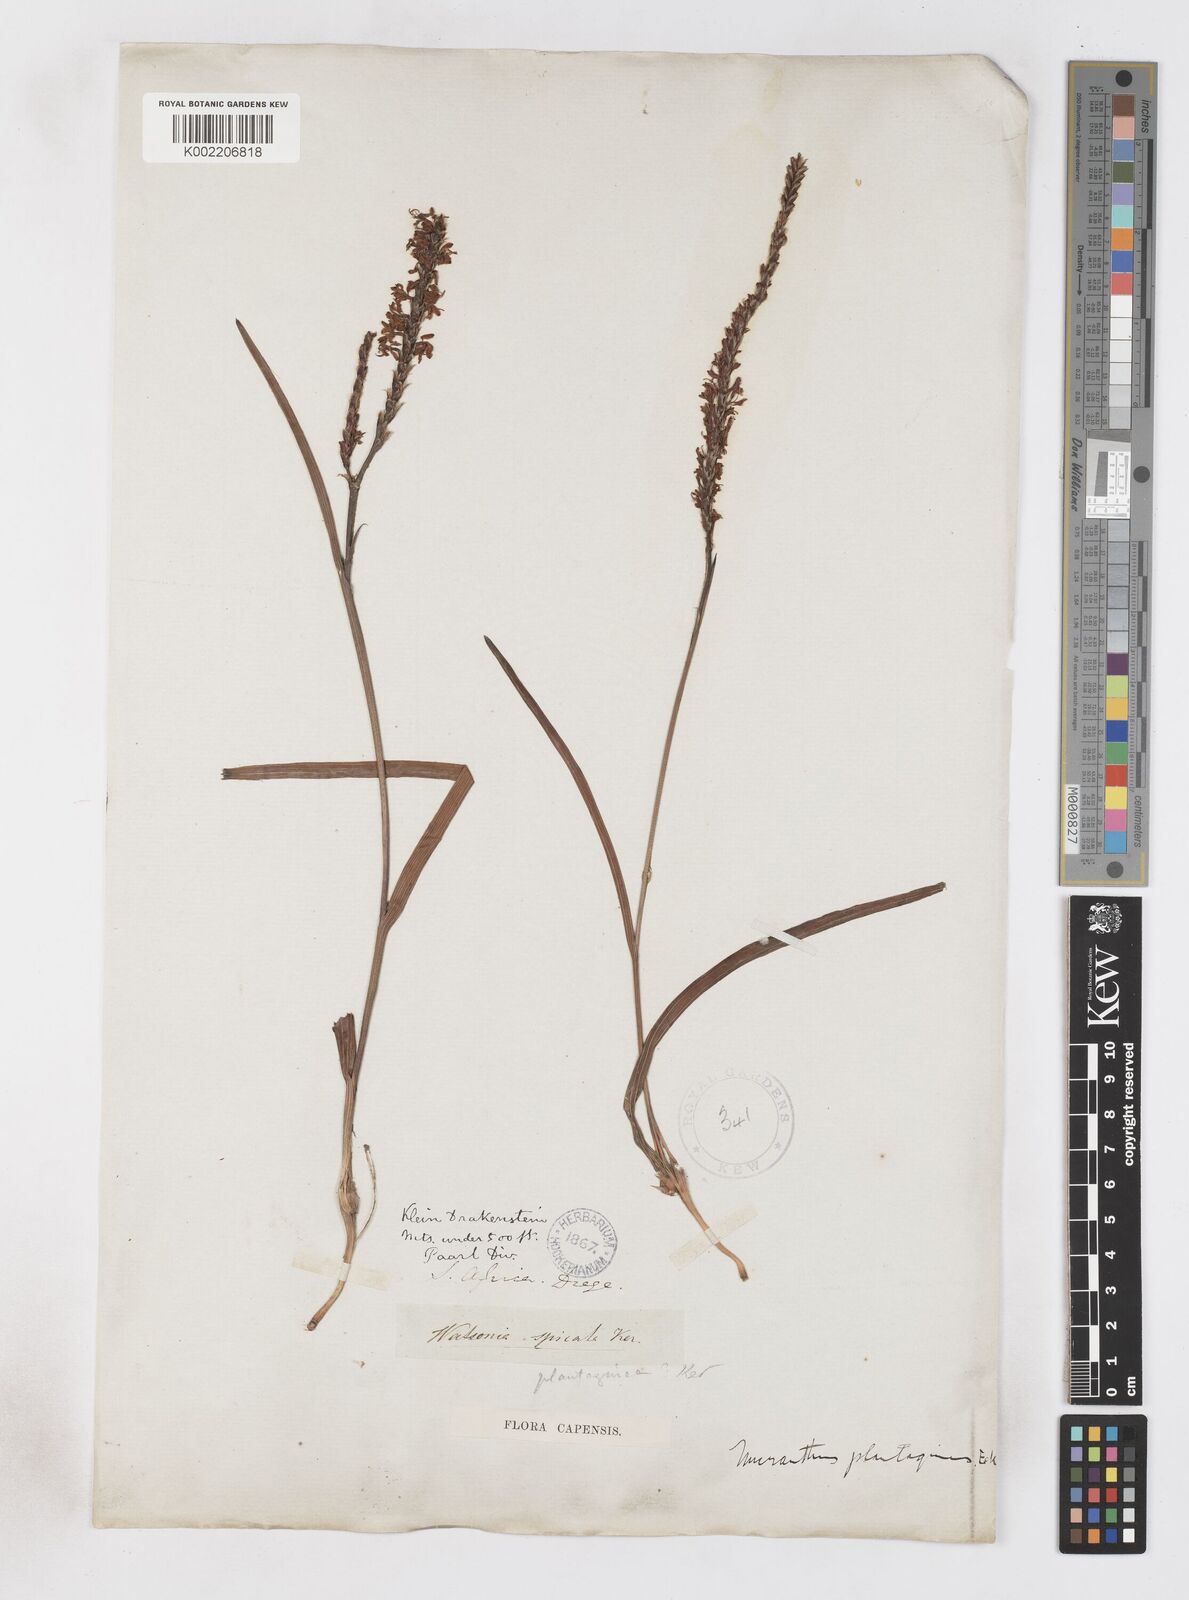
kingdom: Plantae
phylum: Tracheophyta
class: Liliopsida
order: Asparagales
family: Iridaceae
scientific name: Iridaceae
